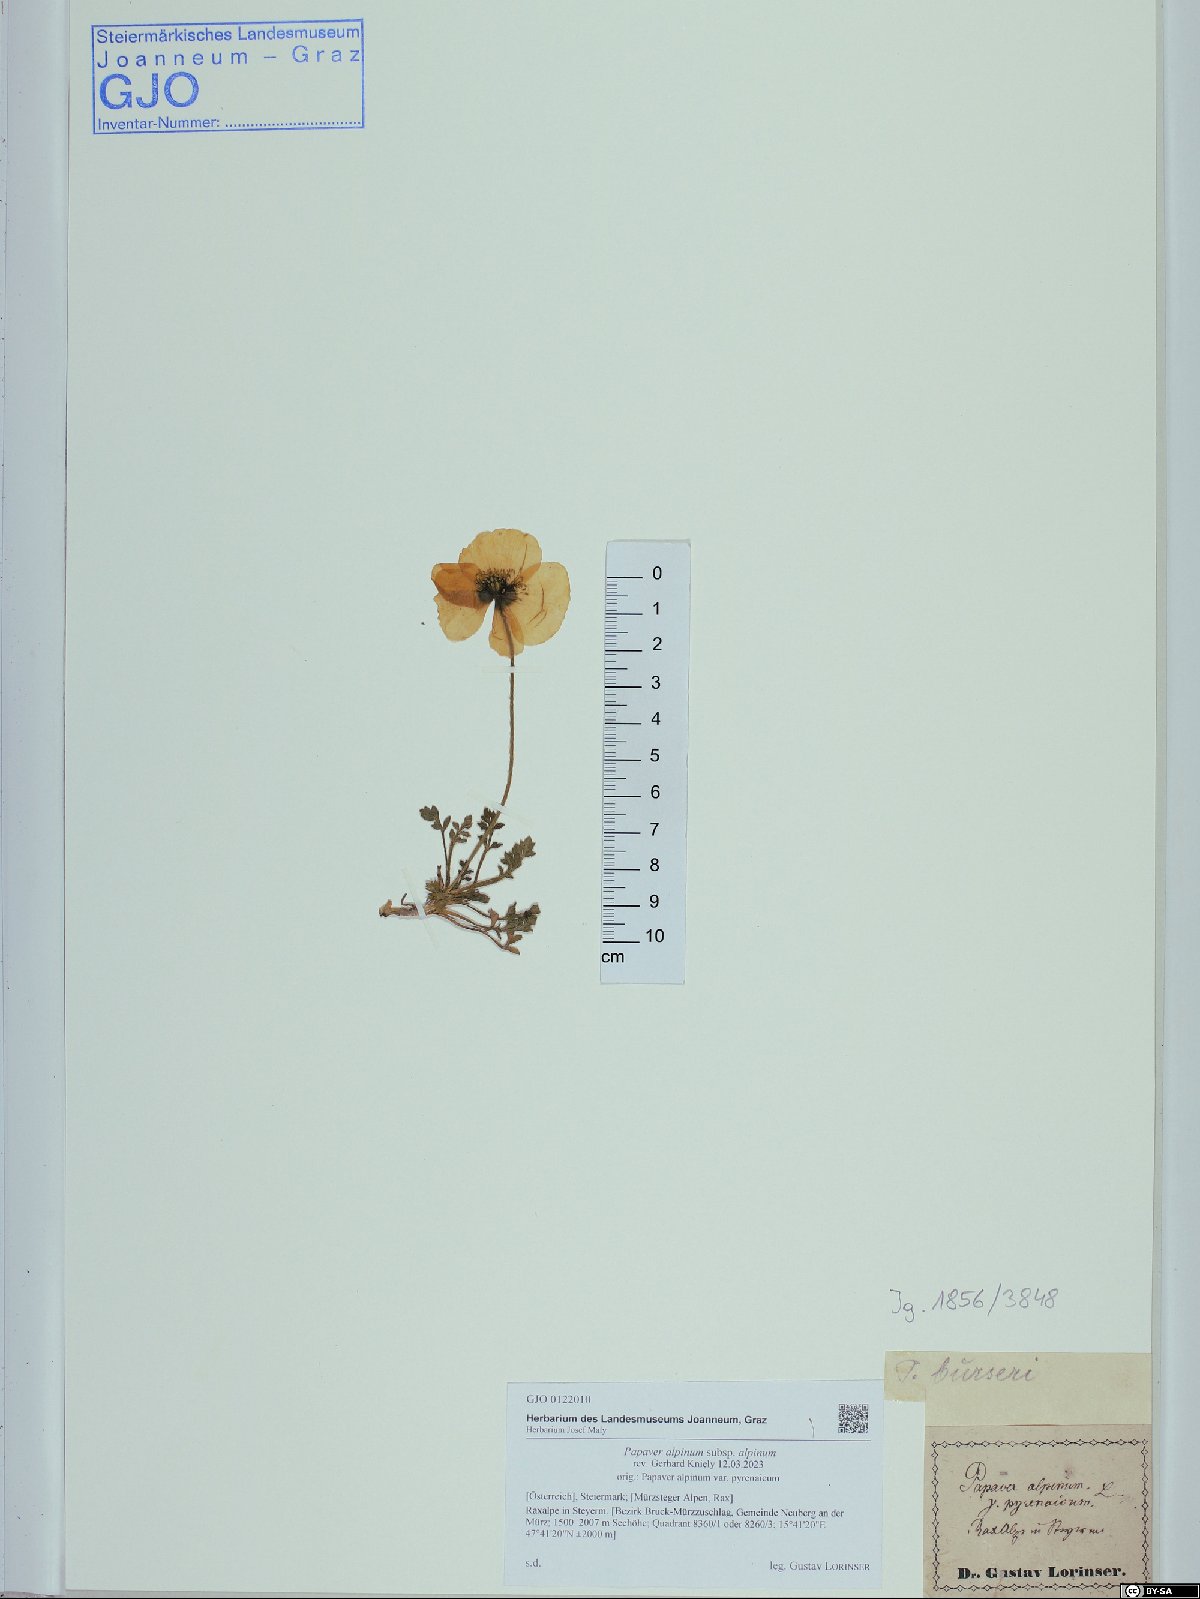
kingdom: Plantae
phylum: Tracheophyta
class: Magnoliopsida
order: Ranunculales
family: Papaveraceae
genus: Papaver
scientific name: Papaver alpinum
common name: Austrian poppy
